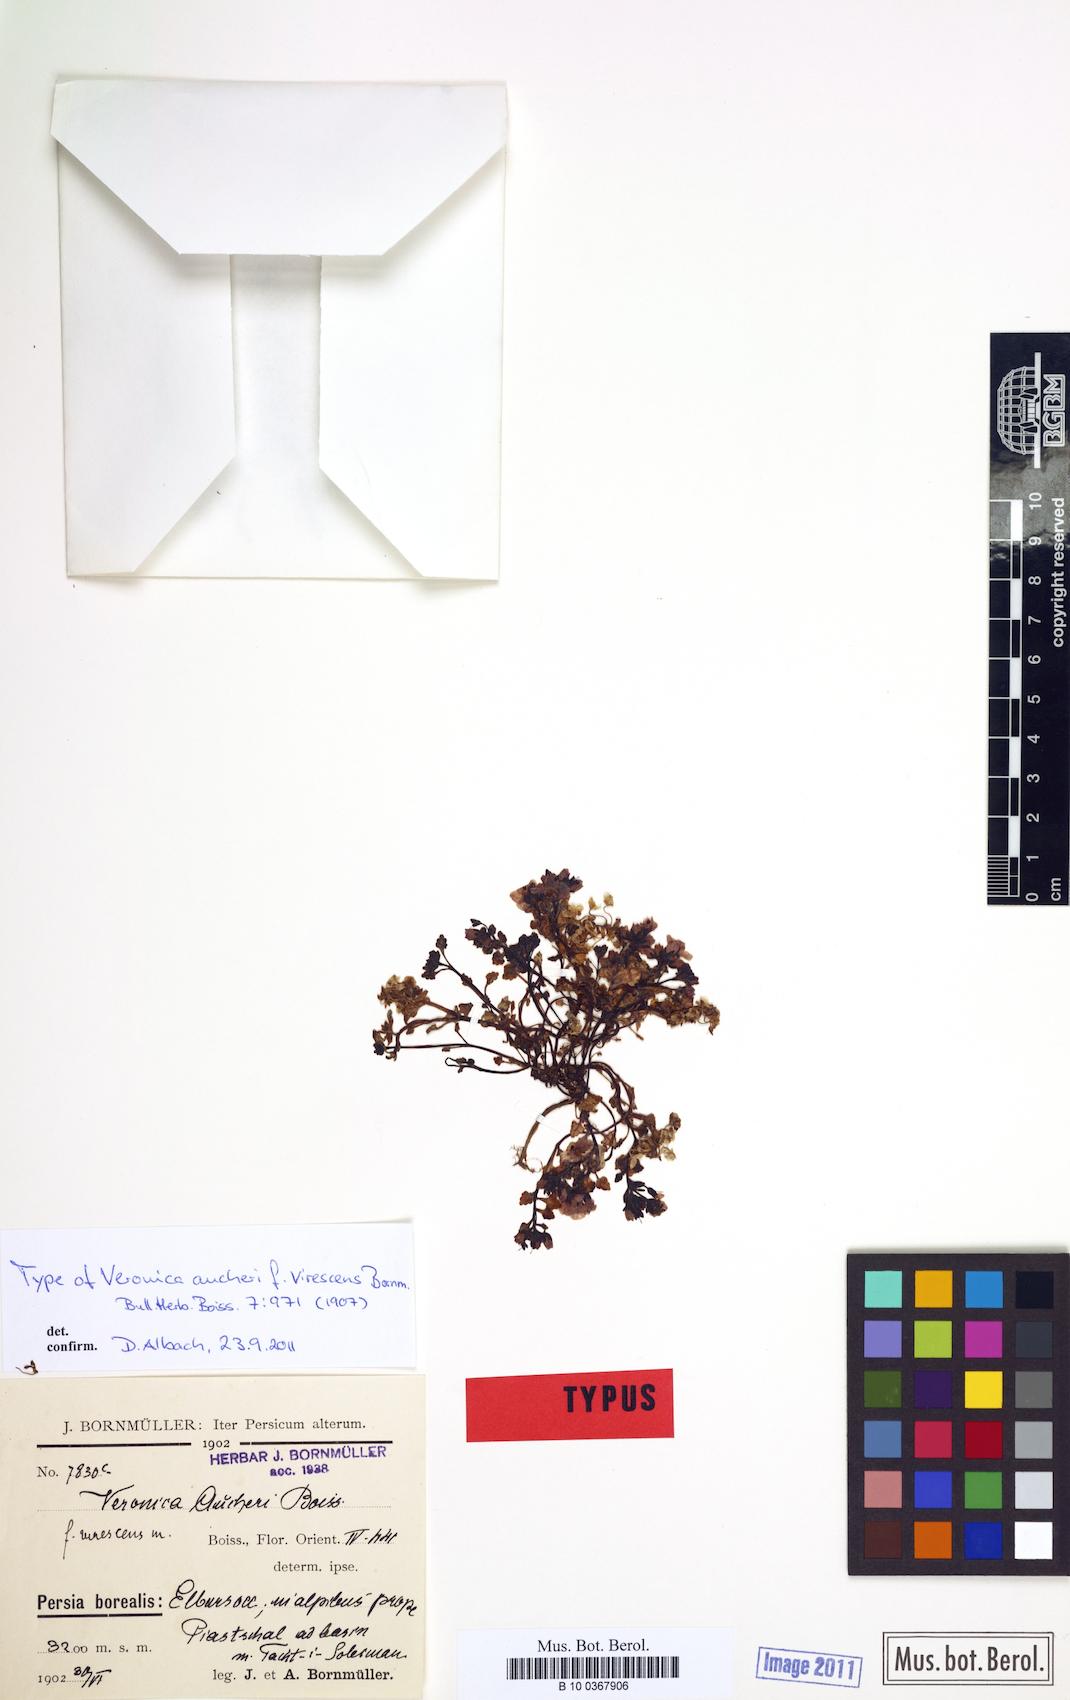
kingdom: Plantae
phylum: Tracheophyta
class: Magnoliopsida
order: Lamiales
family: Plantaginaceae
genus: Veronica
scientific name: Veronica aucheri
